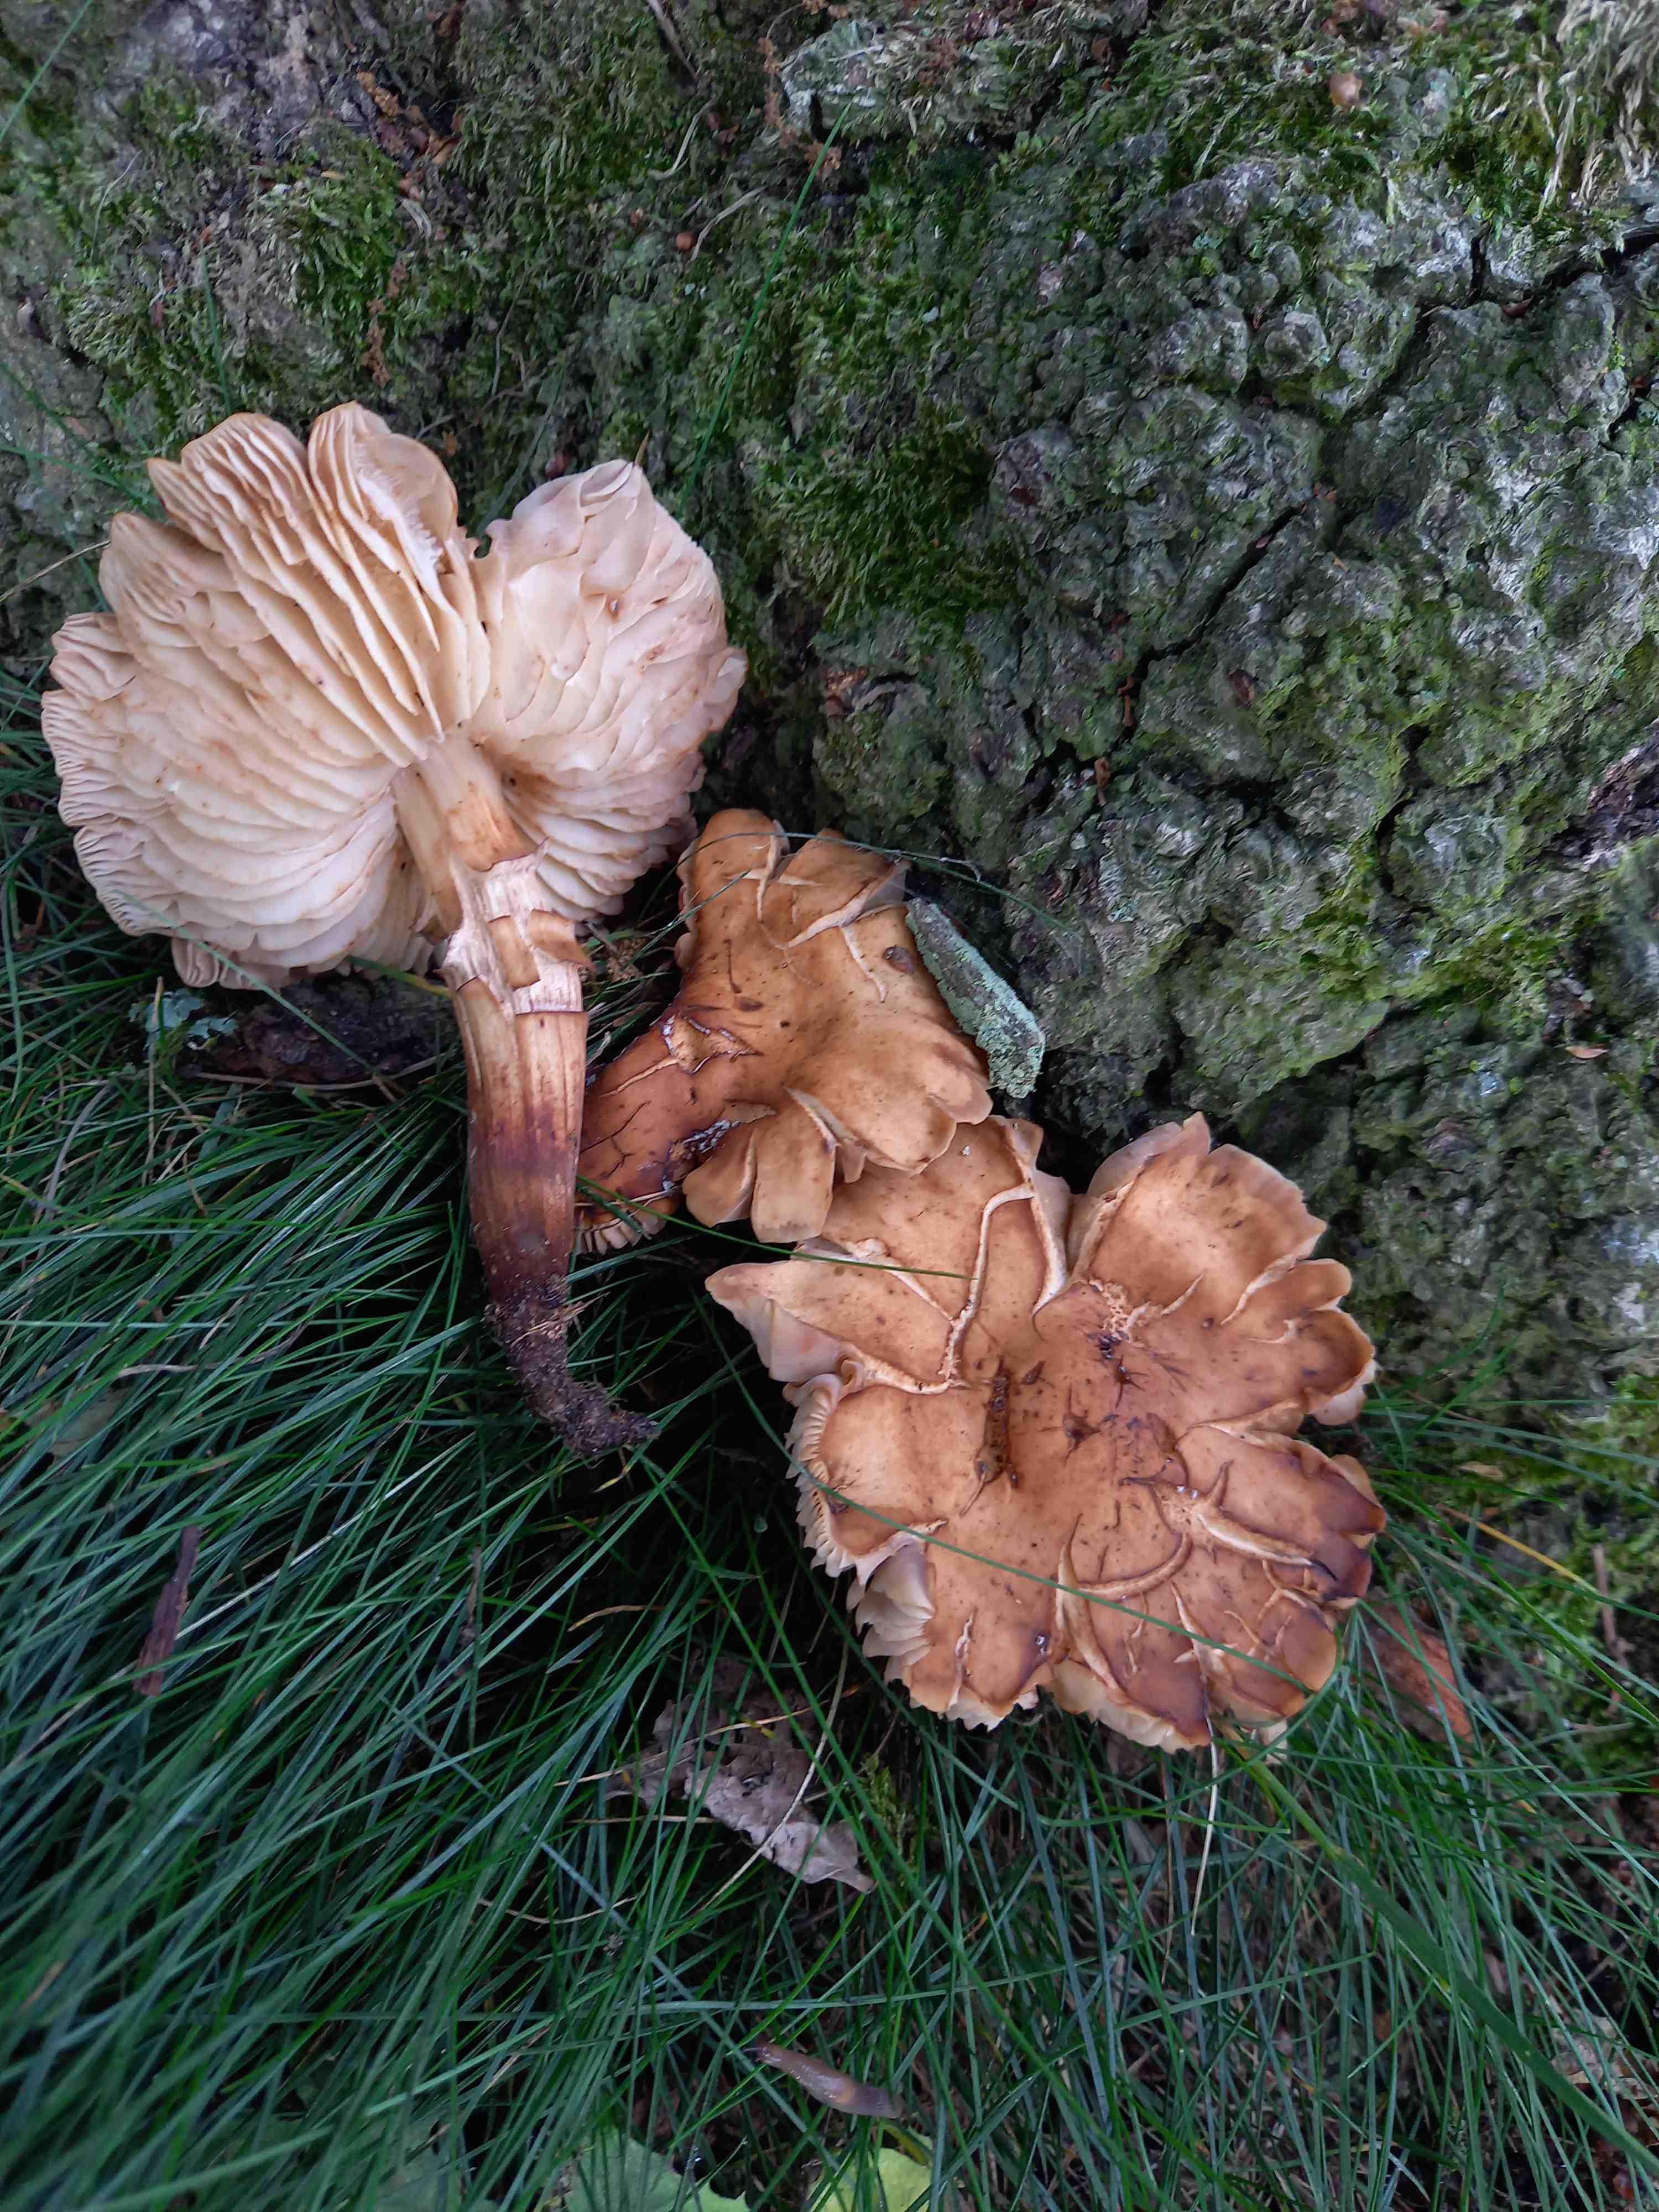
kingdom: Fungi
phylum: Basidiomycota
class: Agaricomycetes
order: Agaricales
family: Omphalotaceae
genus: Gymnopus
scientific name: Gymnopus fusipes
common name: tenstokket fladhat
